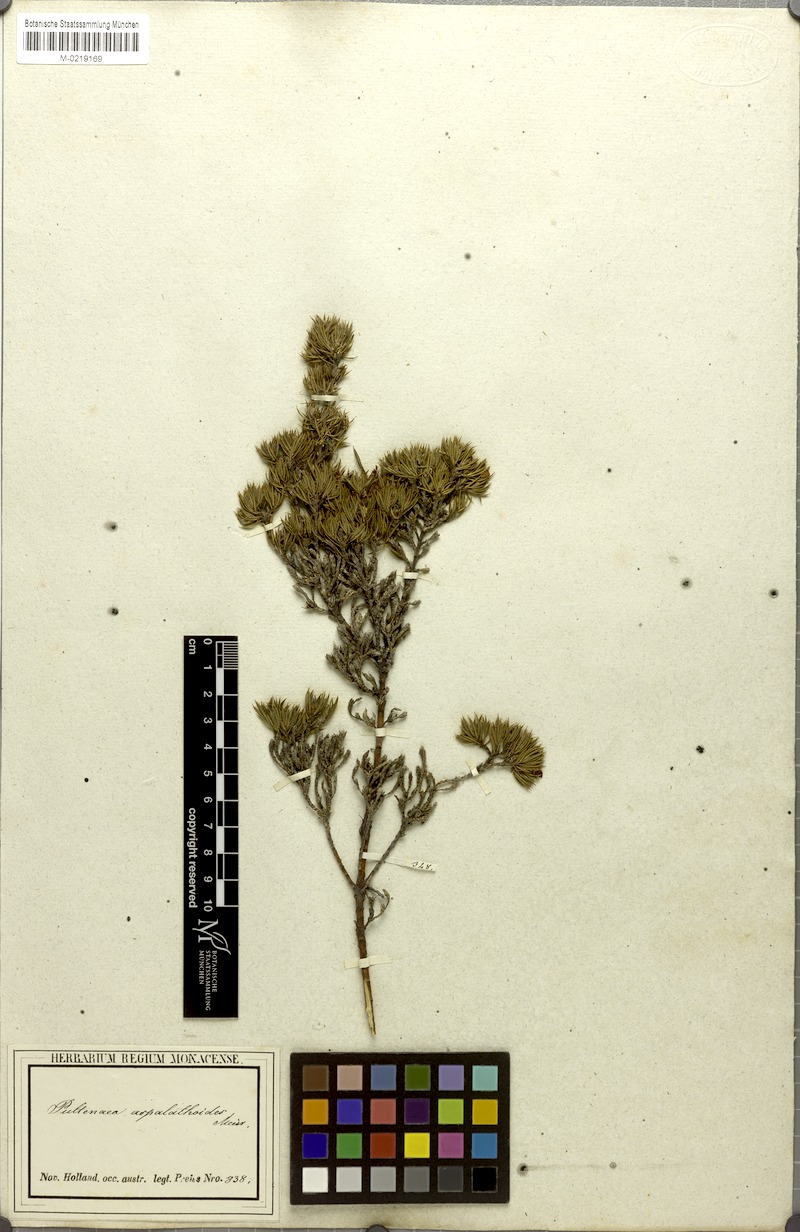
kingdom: Plantae
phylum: Tracheophyta
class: Magnoliopsida
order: Fabales
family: Fabaceae
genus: Pultenaea
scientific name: Pultenaea aspalathoides
